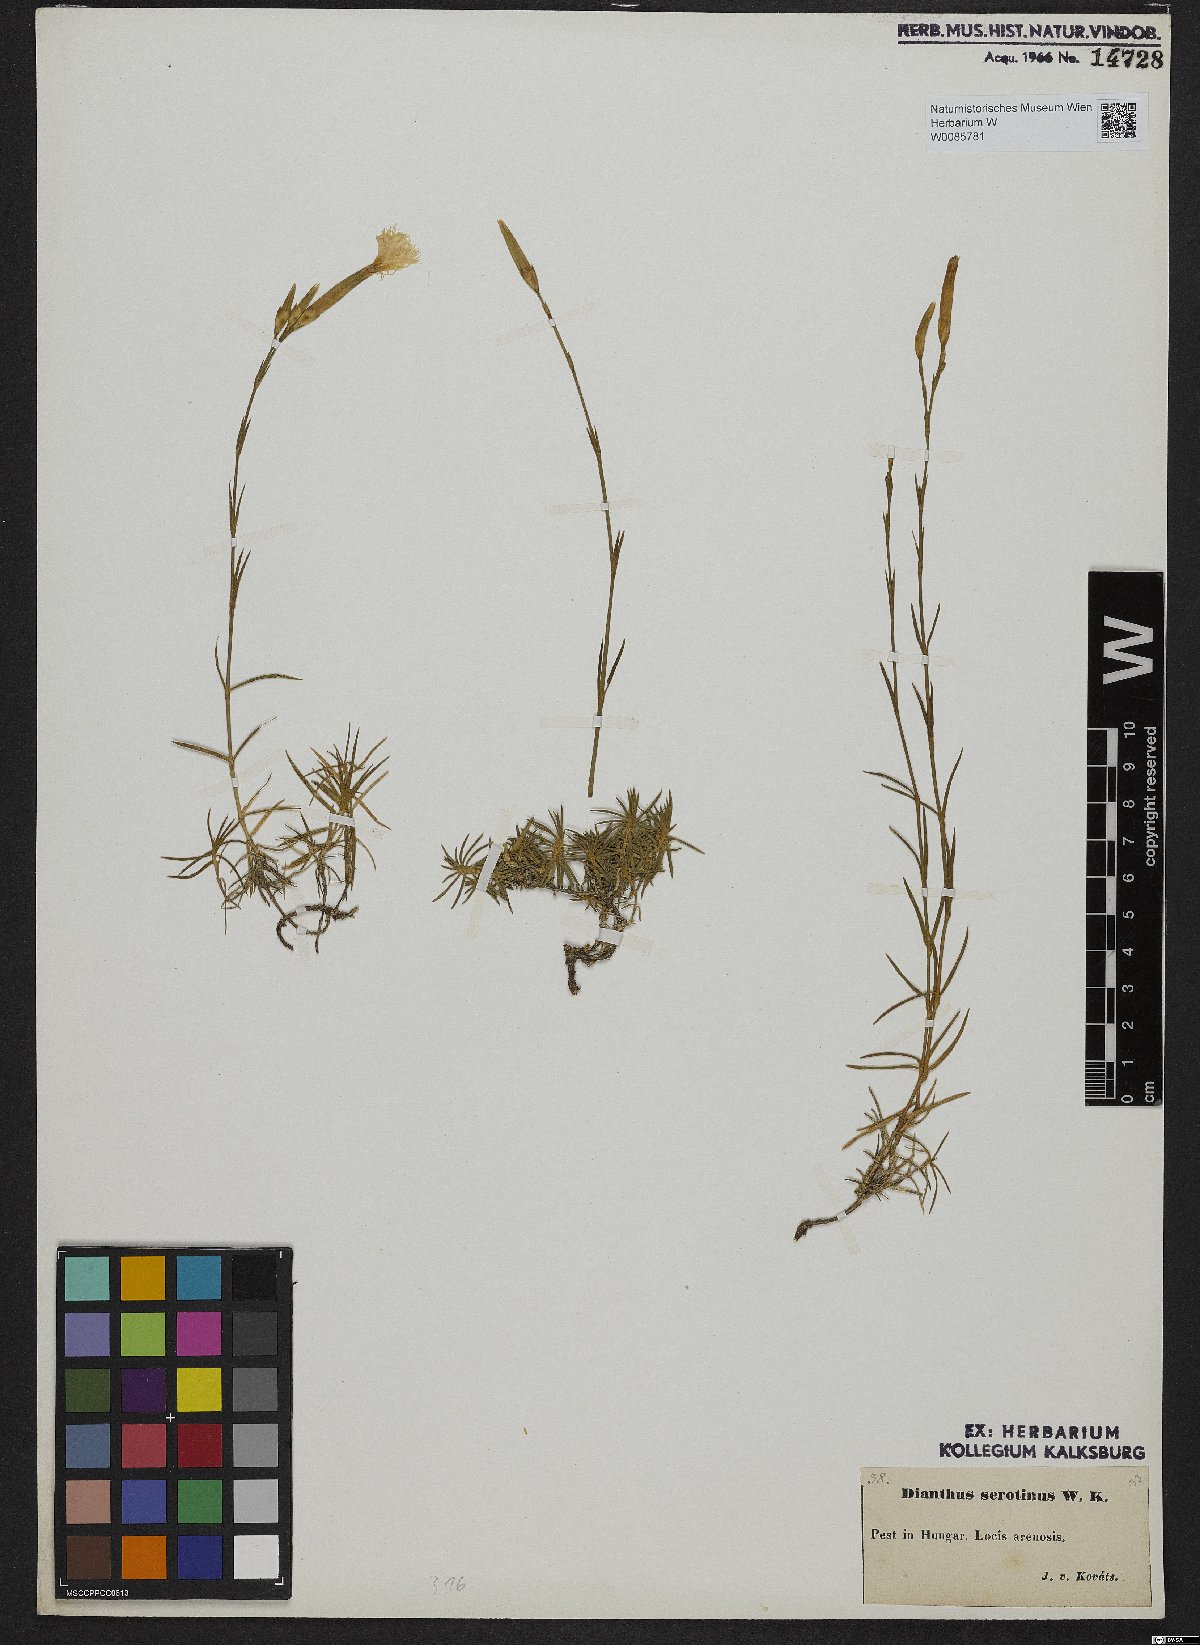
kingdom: Plantae
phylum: Tracheophyta
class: Magnoliopsida
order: Caryophyllales
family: Caryophyllaceae
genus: Dianthus
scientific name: Dianthus serotinus
